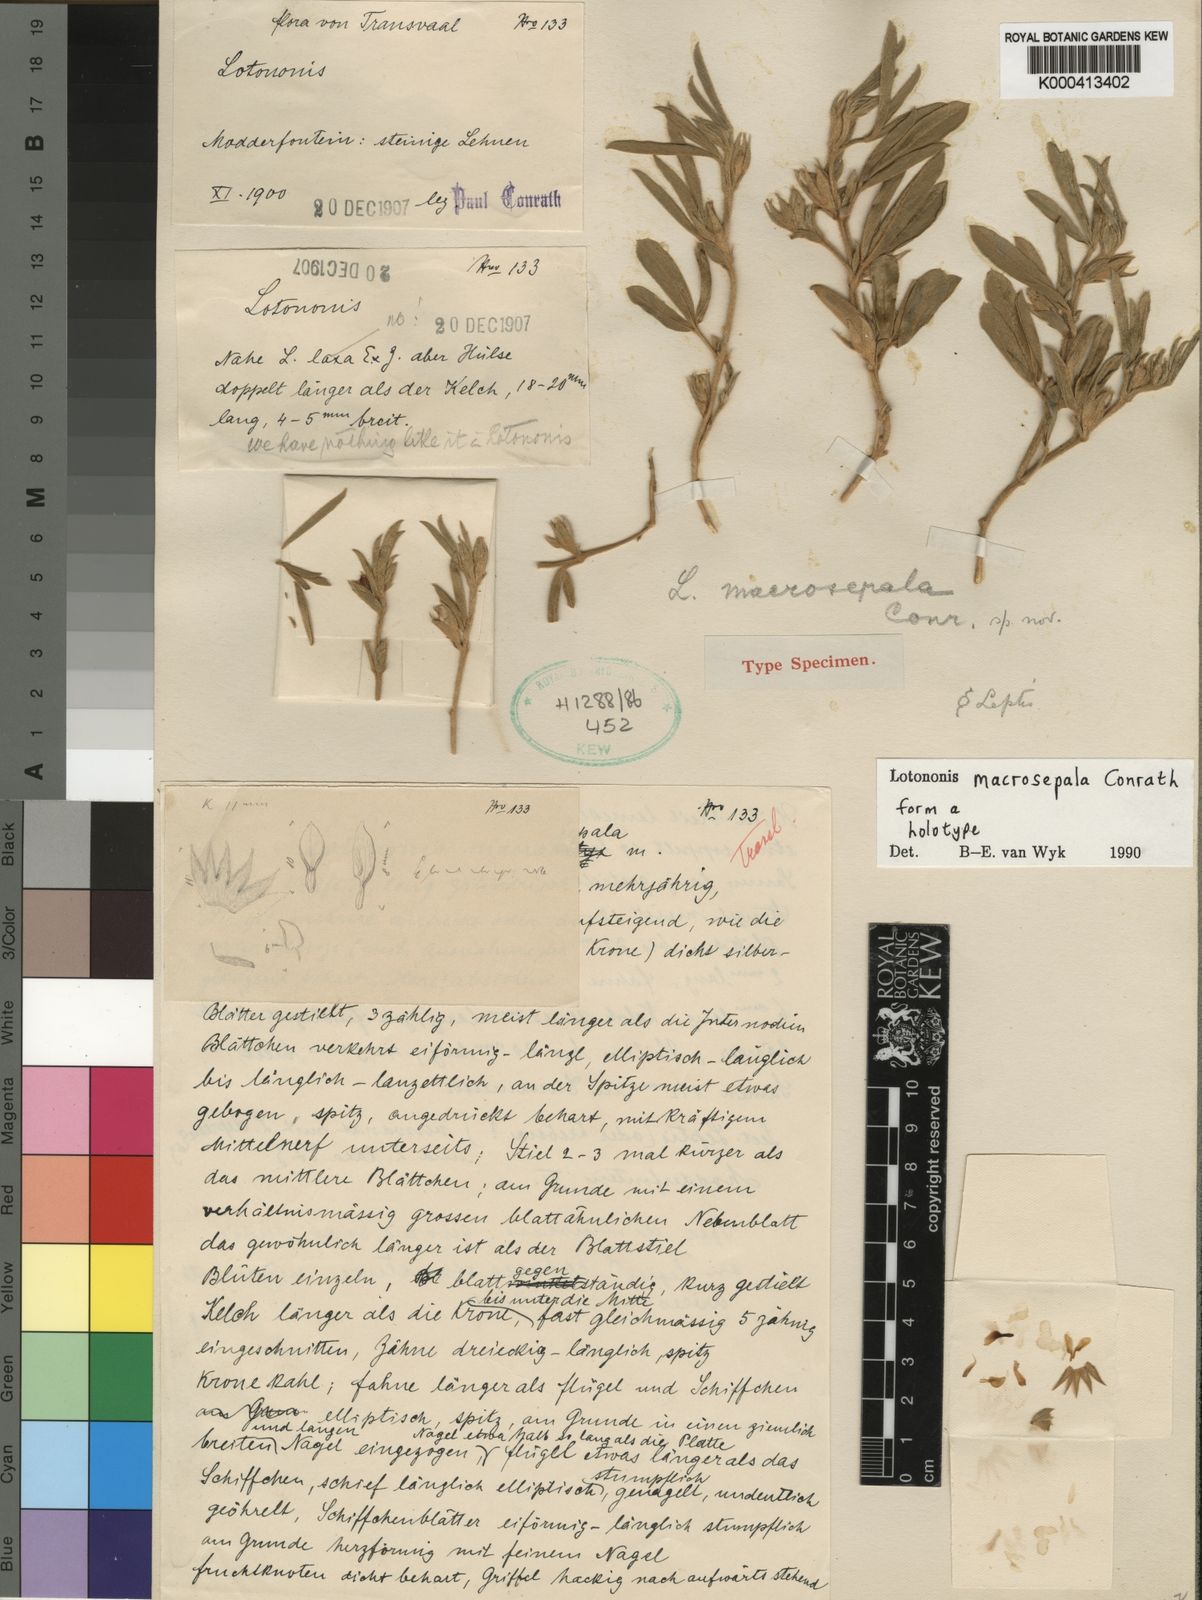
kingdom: Plantae
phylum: Tracheophyta
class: Magnoliopsida
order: Fabales
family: Fabaceae
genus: Lotononis
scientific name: Lotononis macrosepala
